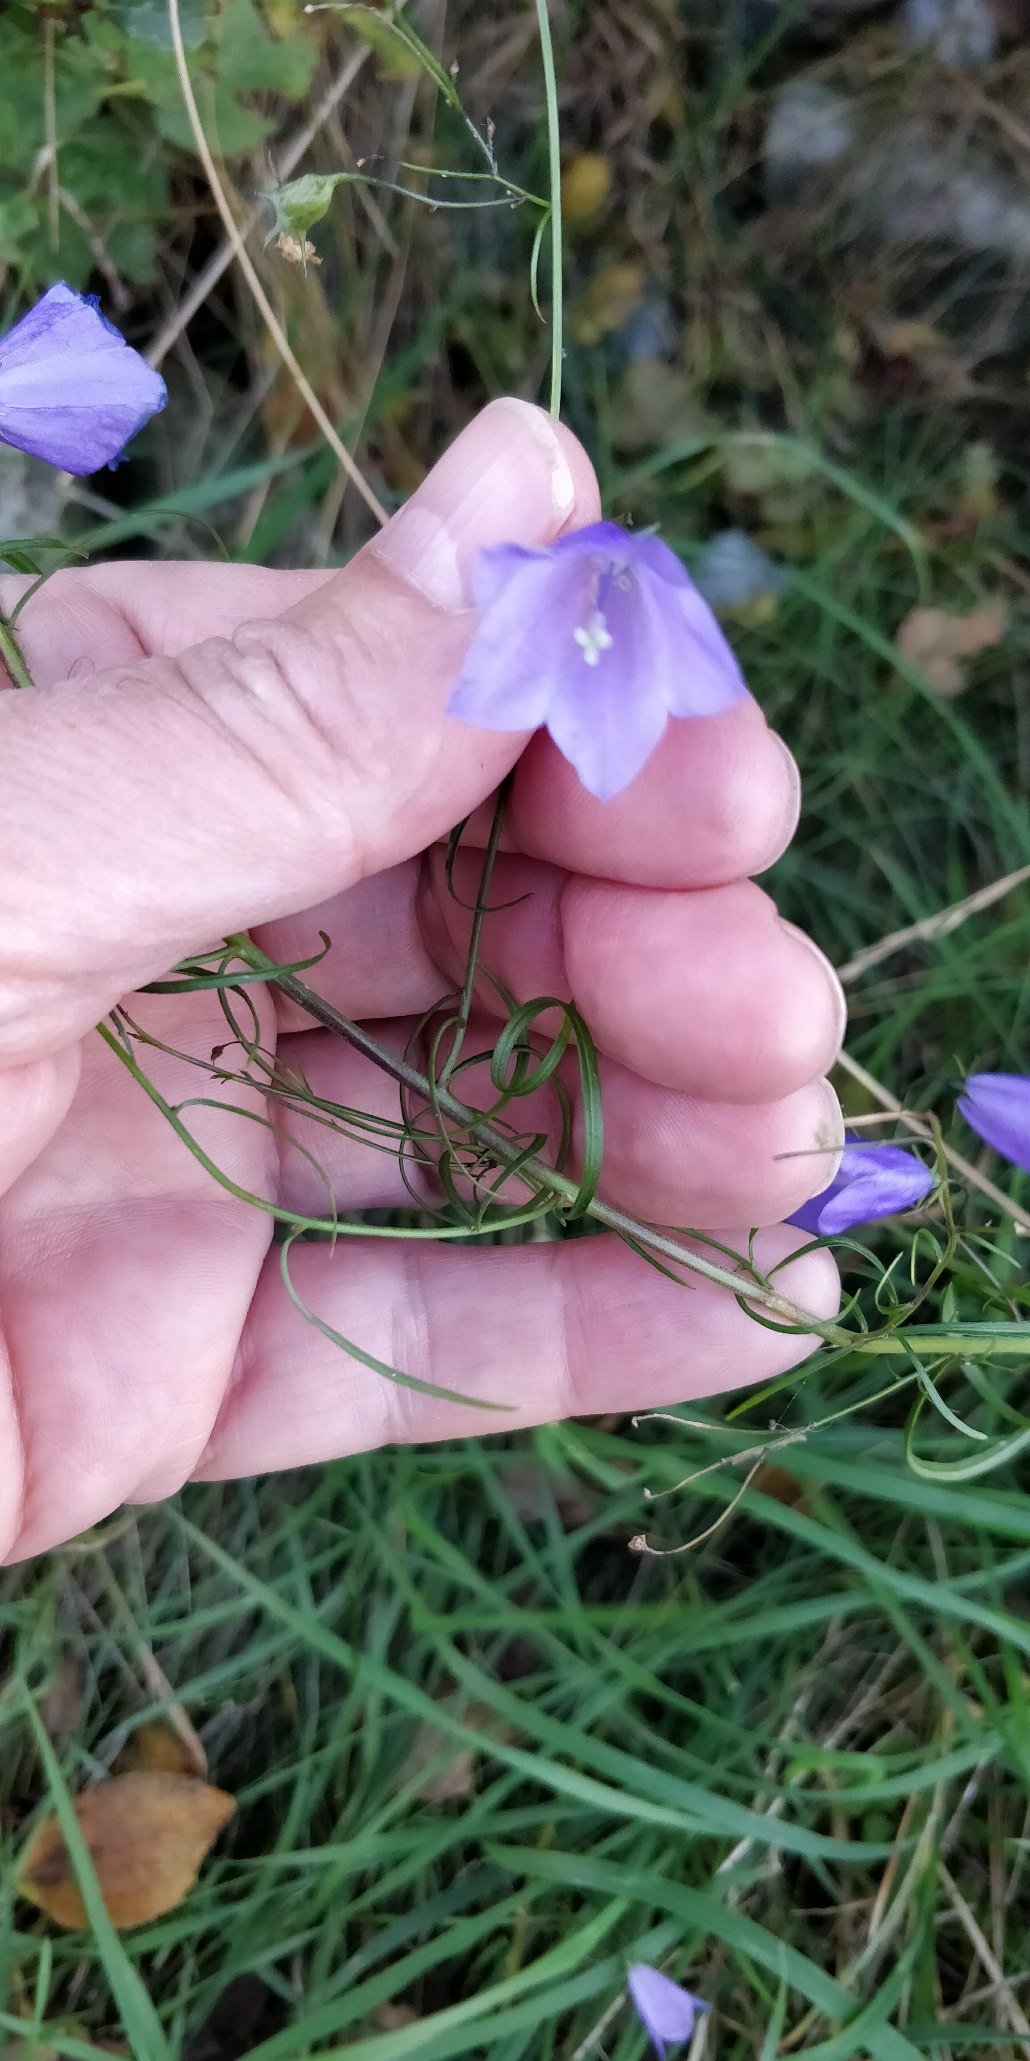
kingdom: Plantae
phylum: Tracheophyta
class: Magnoliopsida
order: Asterales
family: Campanulaceae
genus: Campanula
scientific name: Campanula rotundifolia
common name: Liden klokke
